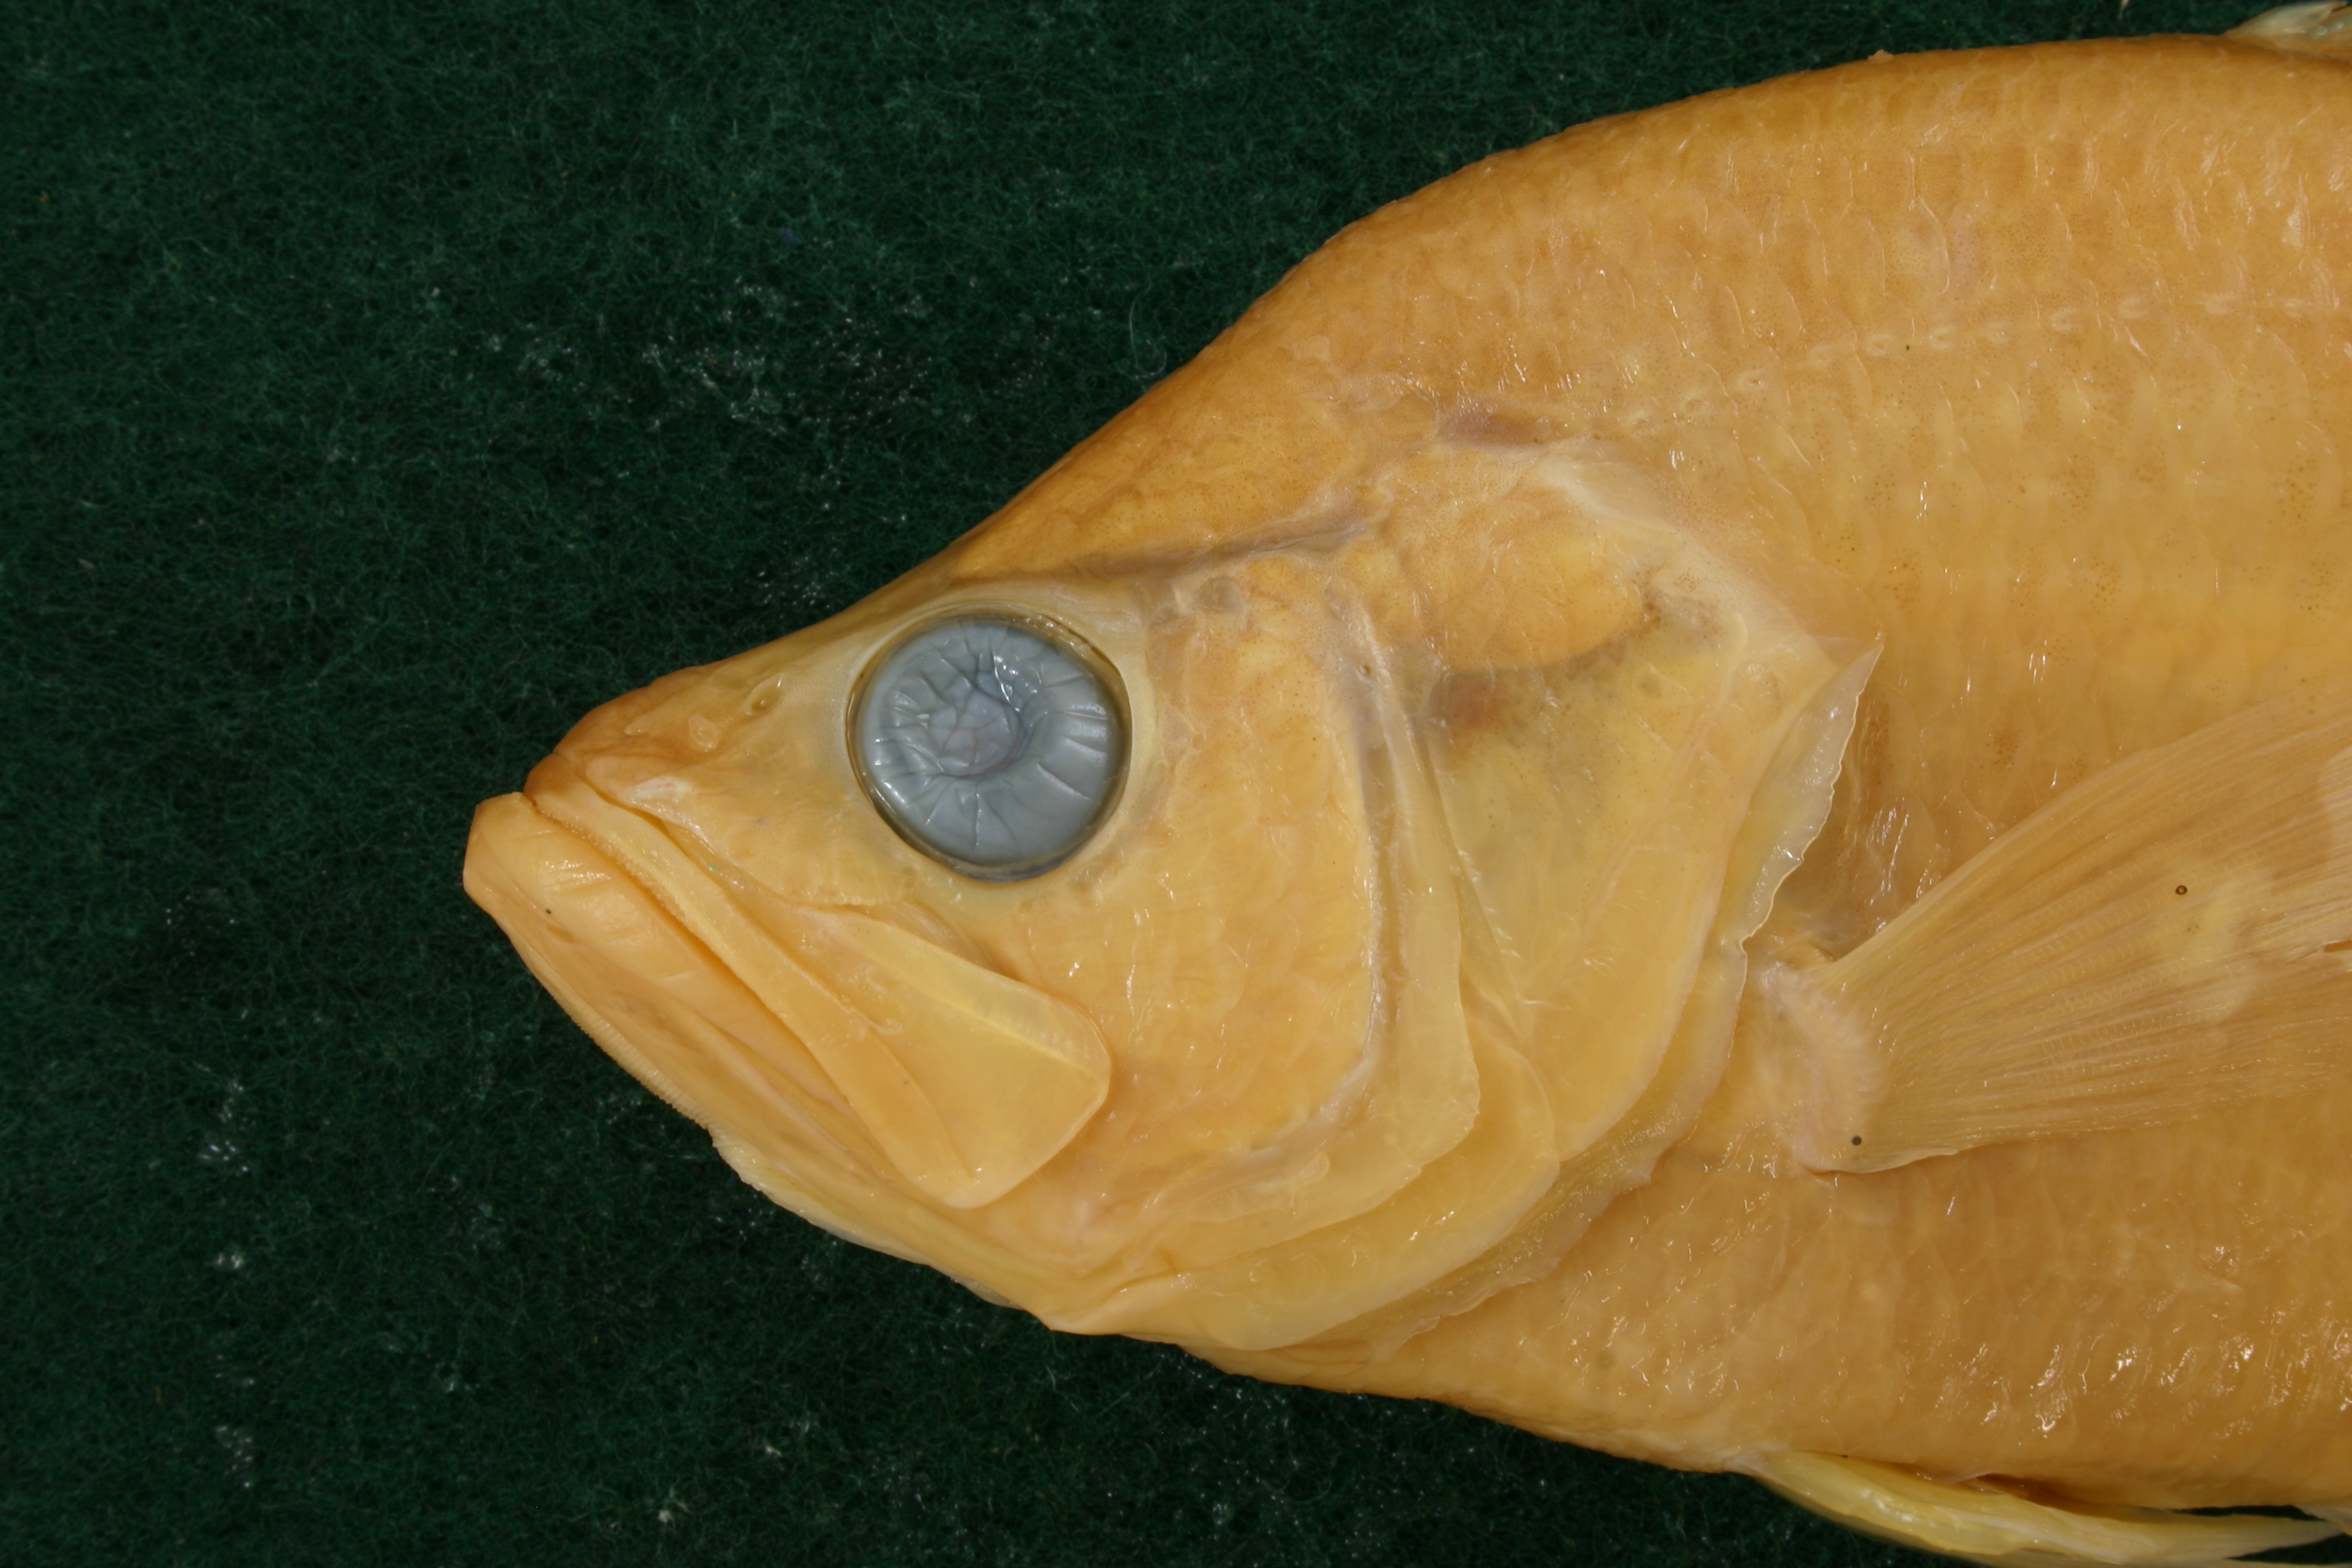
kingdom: Animalia
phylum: Chordata
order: Perciformes
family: Centrarchidae
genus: Pomoxis
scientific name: Pomoxis nigromaculatus
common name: Black crappie
